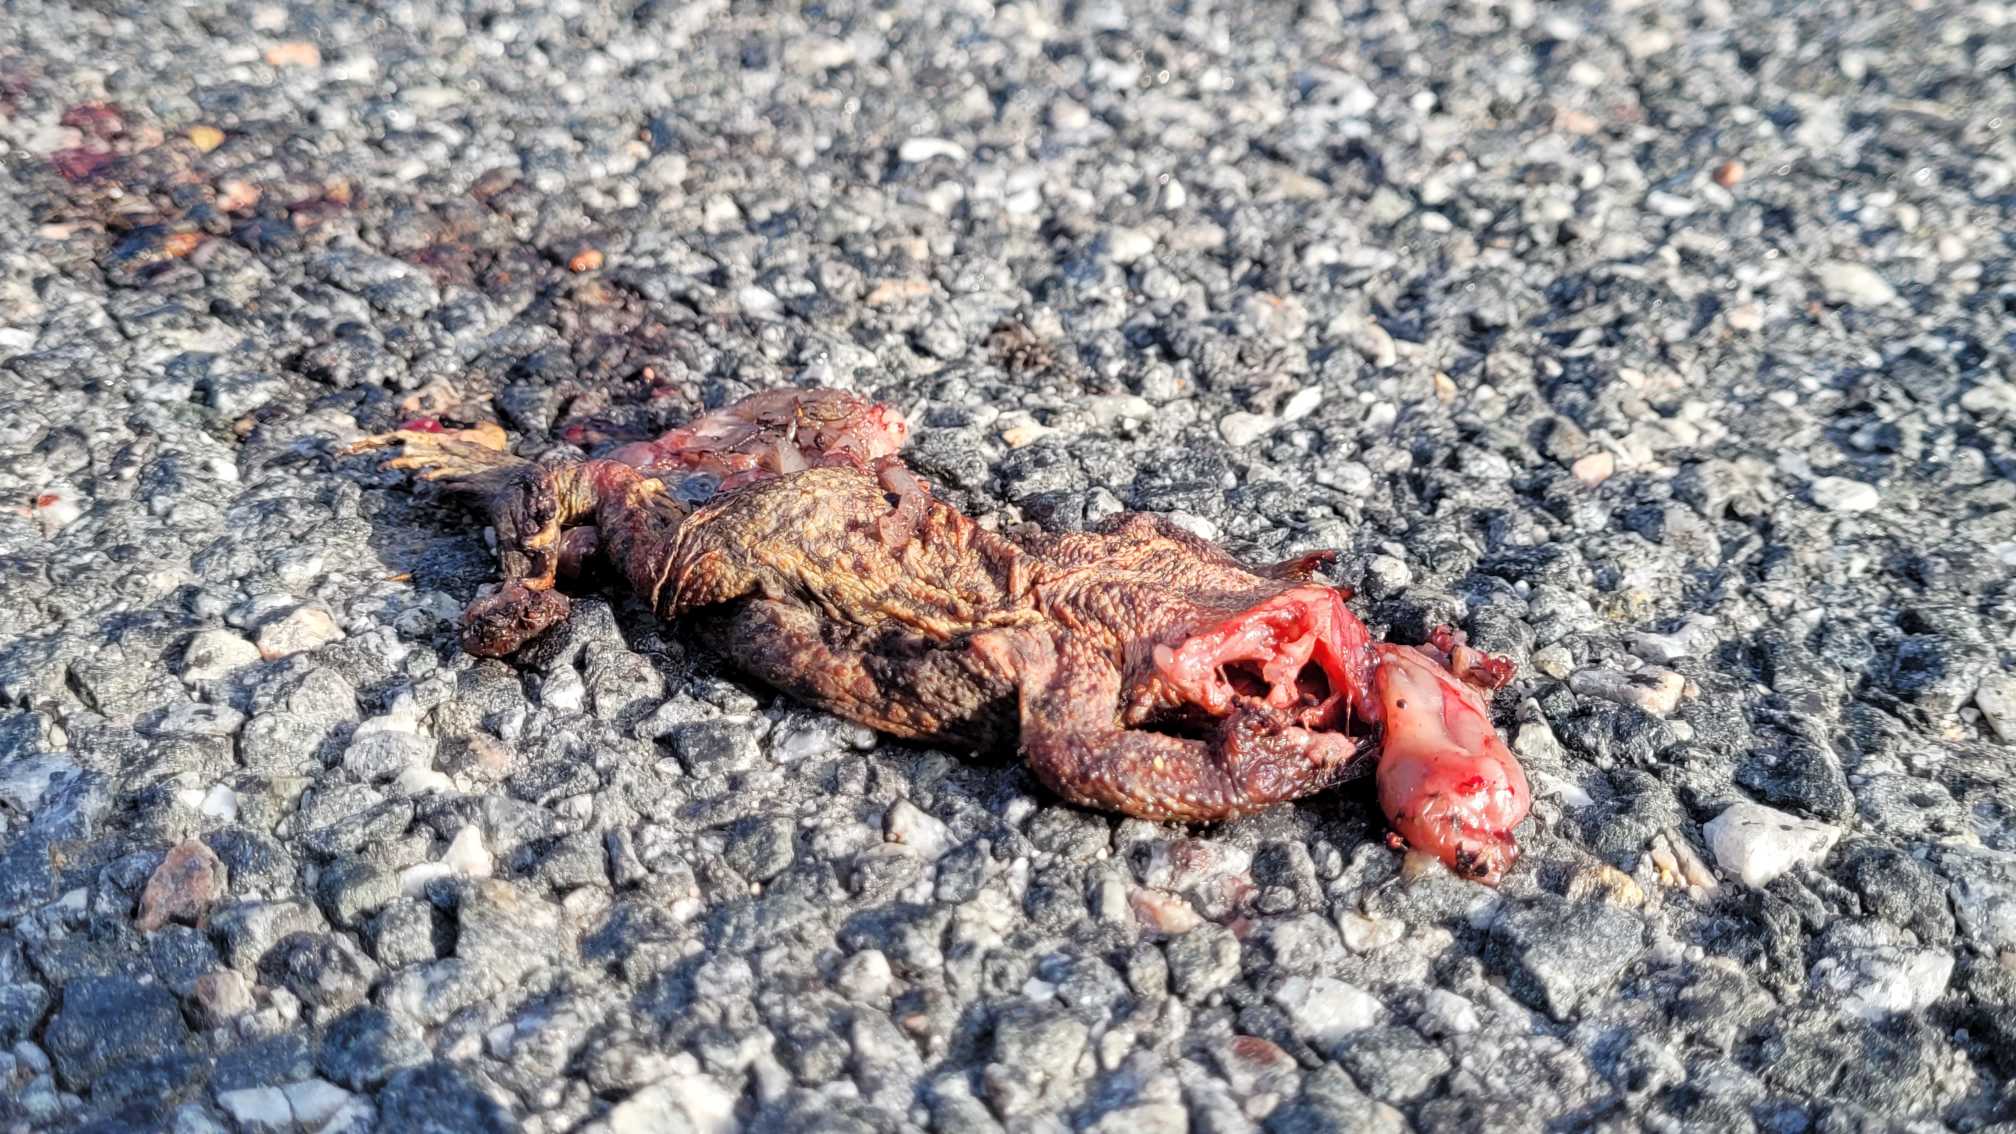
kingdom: Animalia
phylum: Chordata
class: Amphibia
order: Anura
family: Bufonidae
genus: Bufo
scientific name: Bufo bufo
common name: Skrubtudse
